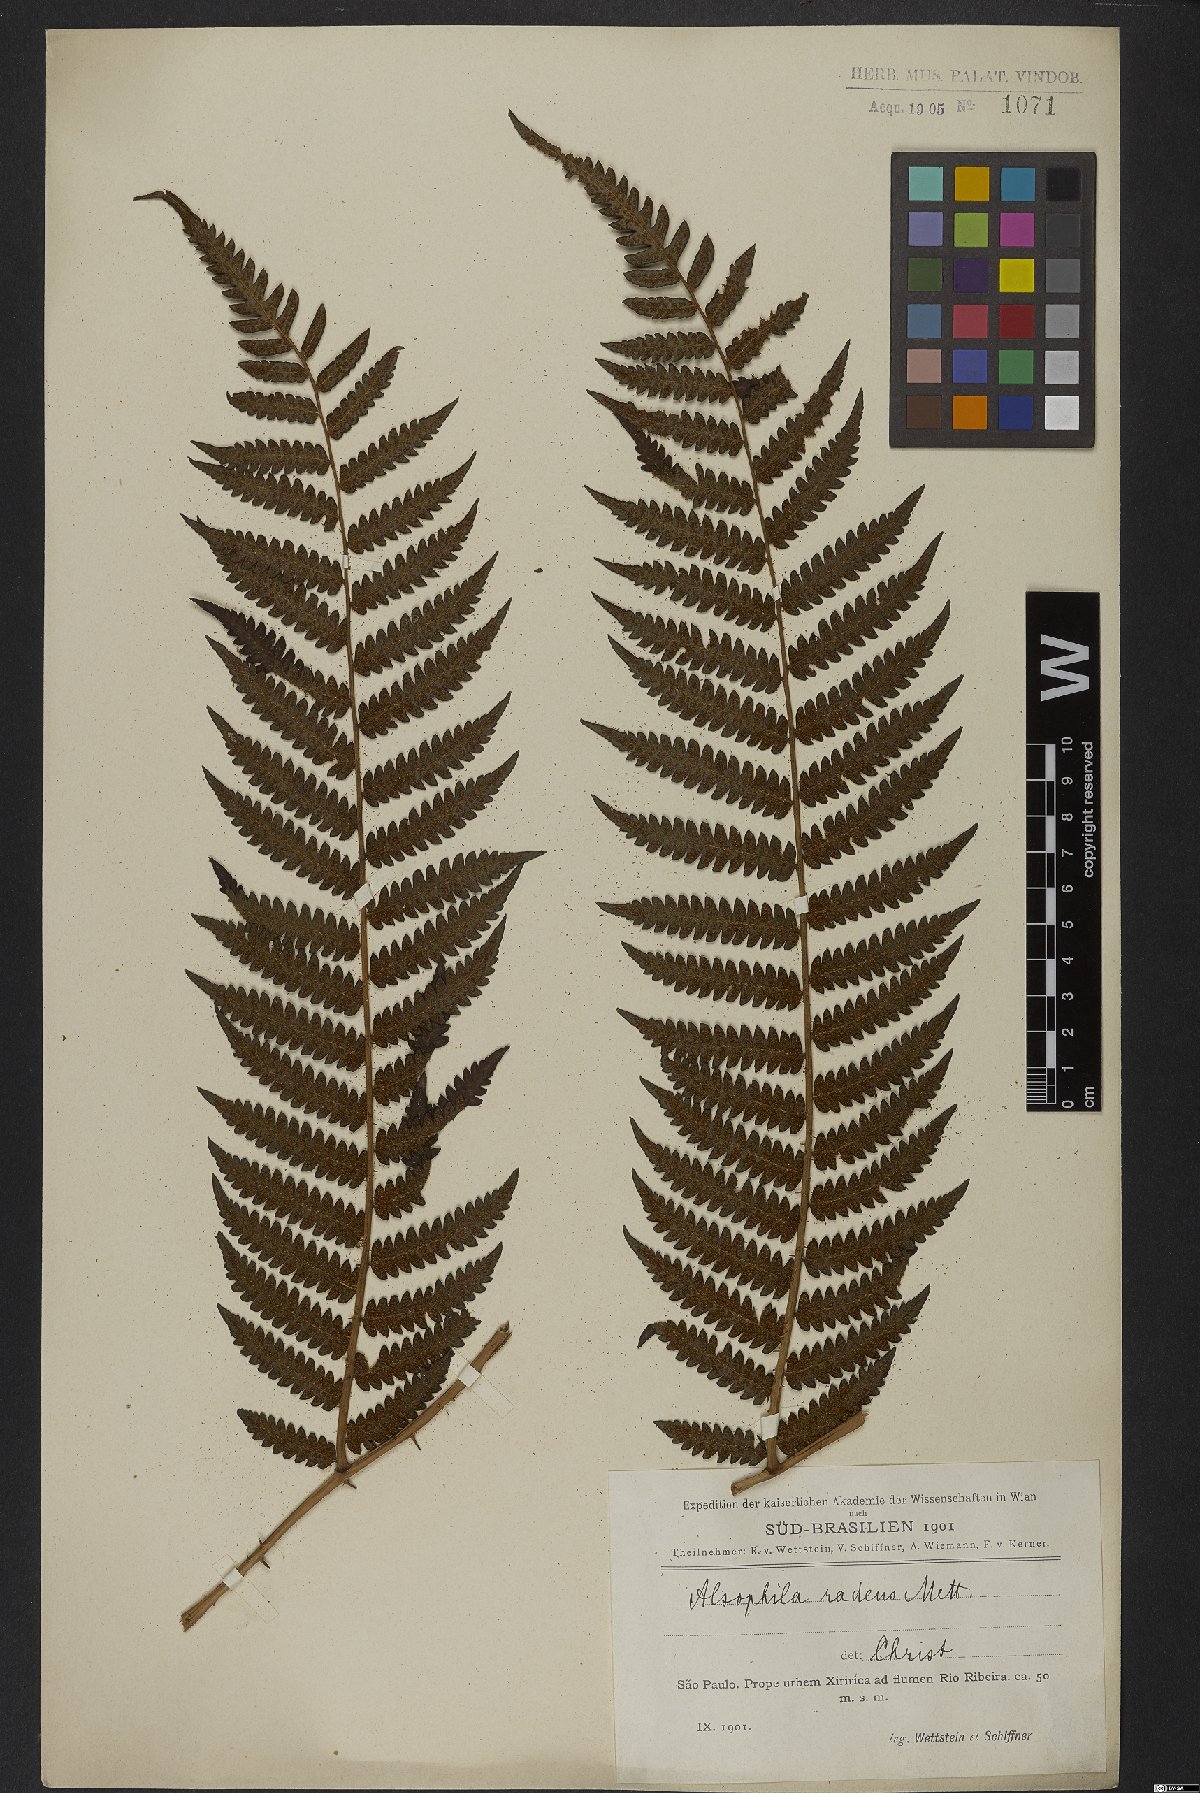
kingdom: Plantae
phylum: Tracheophyta
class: Polypodiopsida
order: Cyatheales
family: Cyatheaceae
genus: Cyathea
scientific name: Cyathea atrovirens
